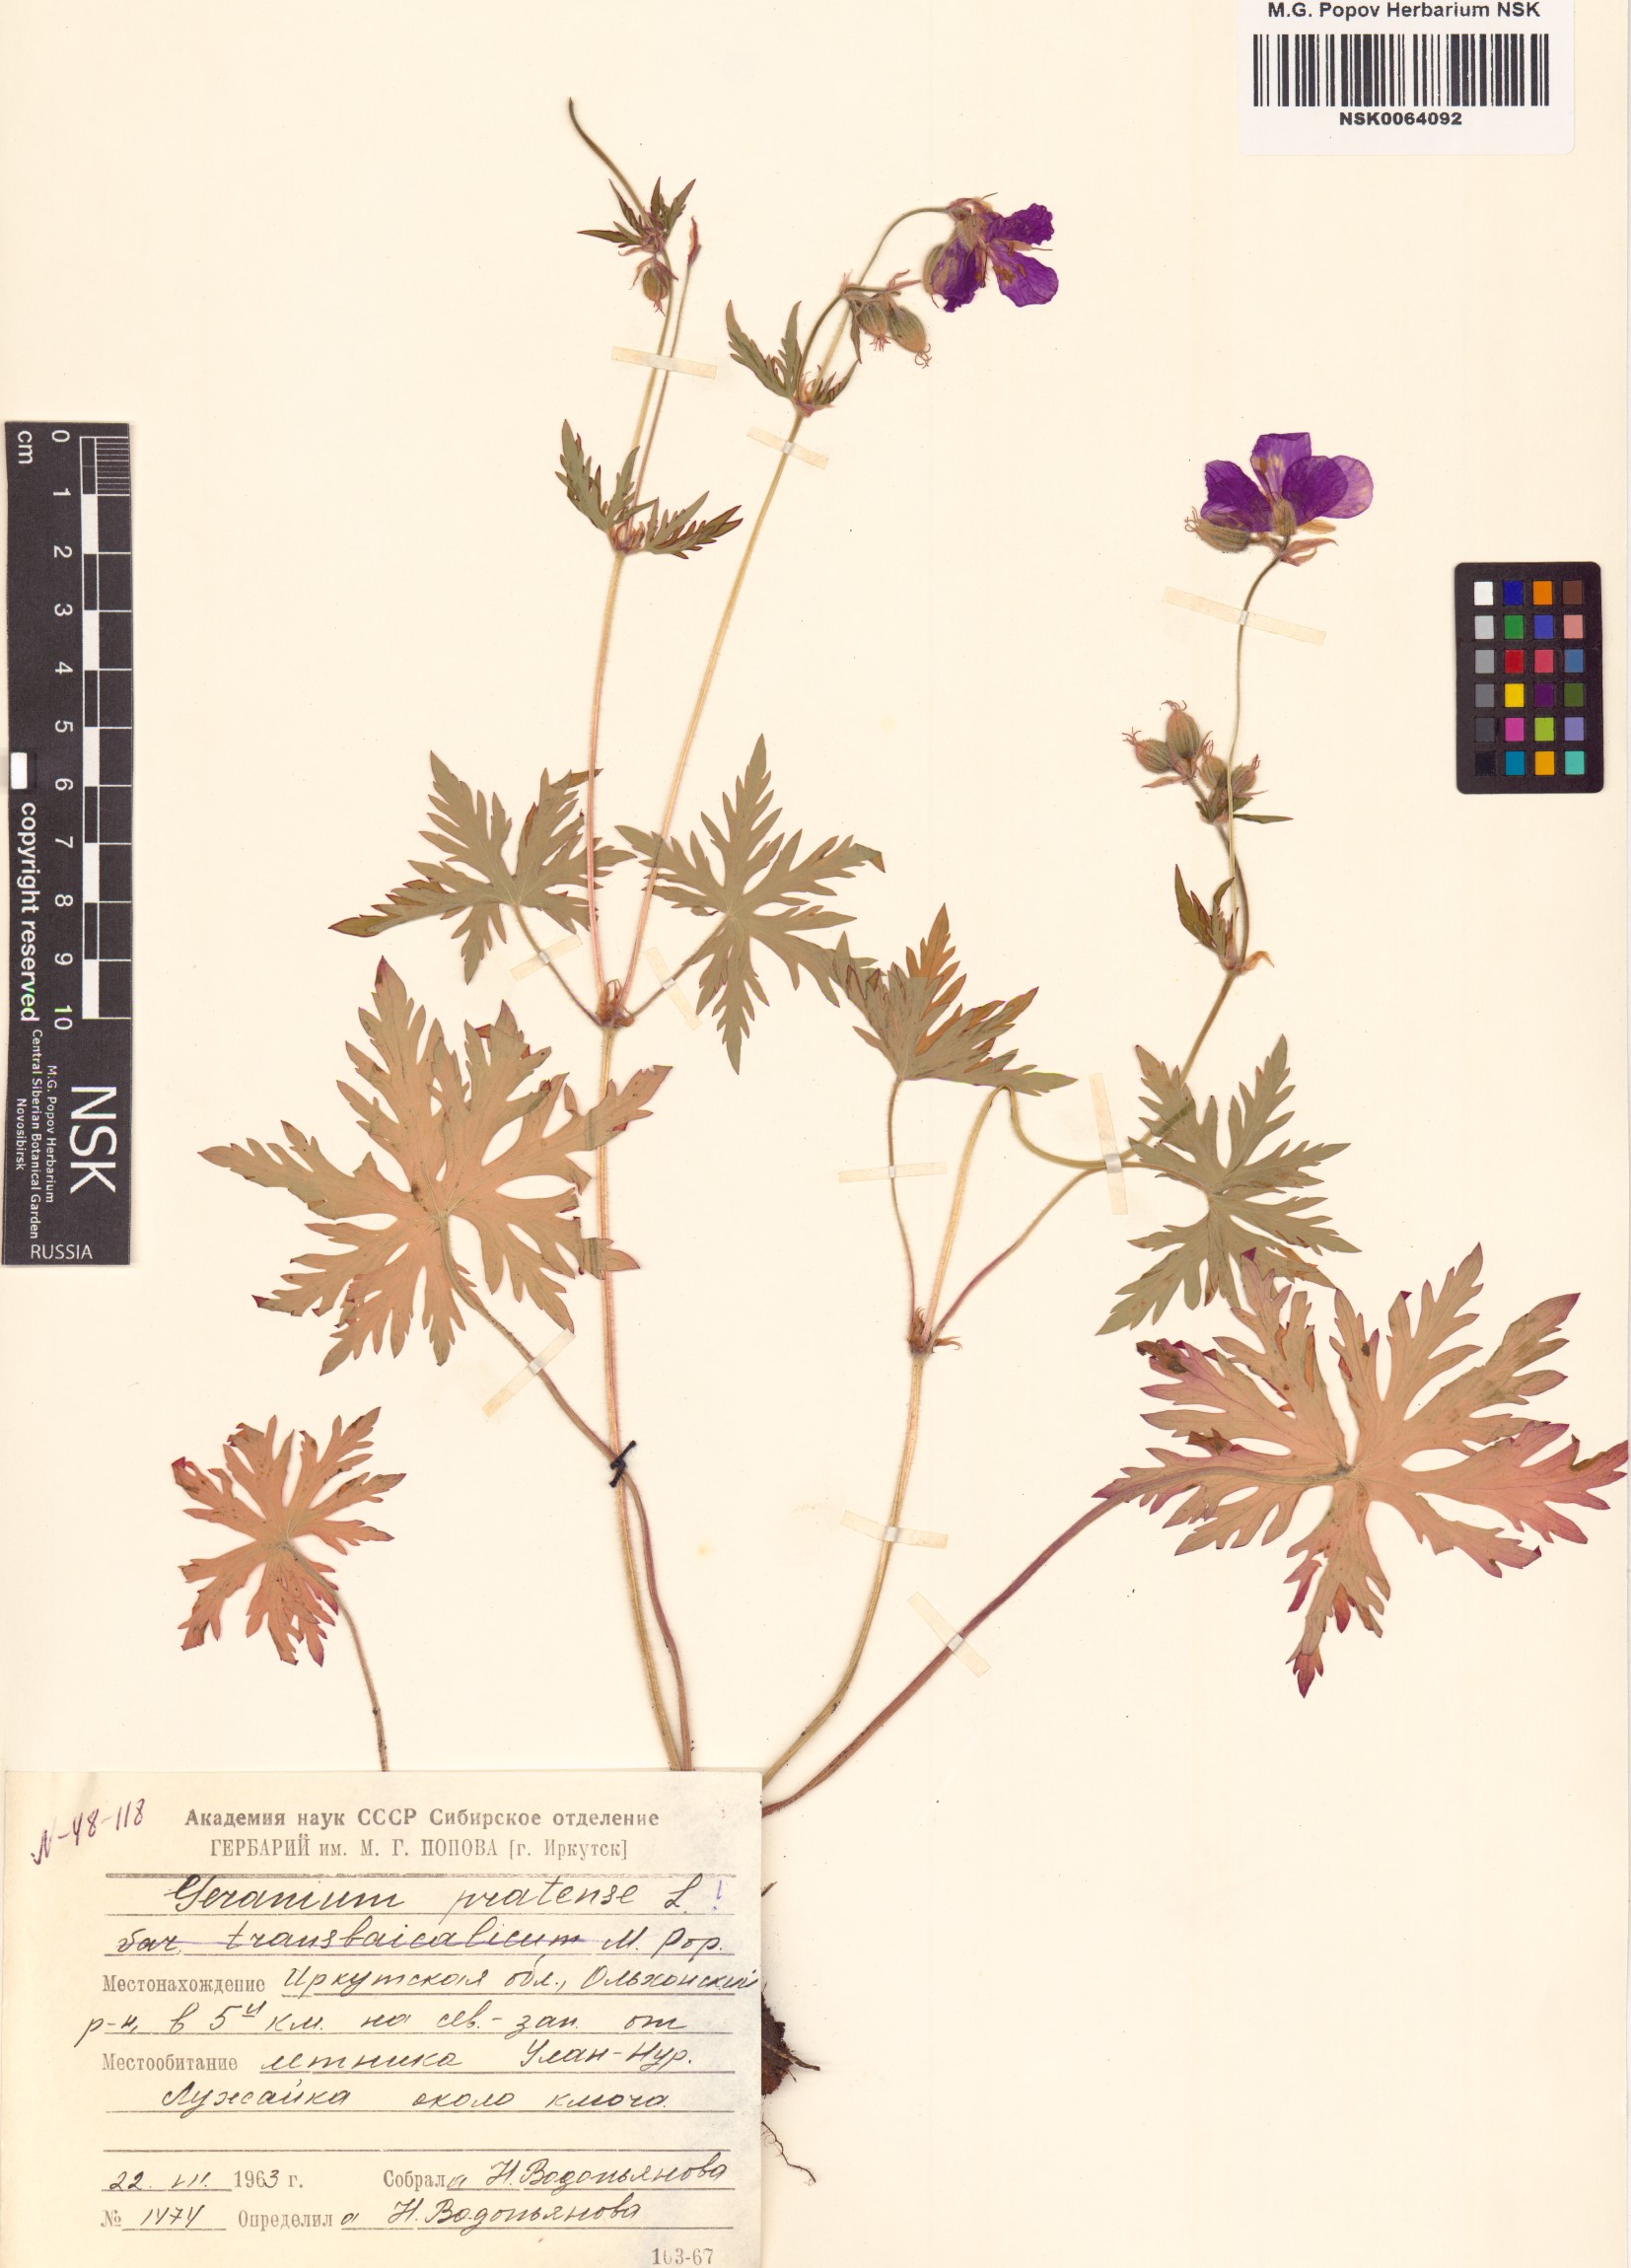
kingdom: Plantae
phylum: Tracheophyta
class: Magnoliopsida
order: Geraniales
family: Geraniaceae
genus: Geranium
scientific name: Geranium pratense
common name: Meadow crane's-bill
